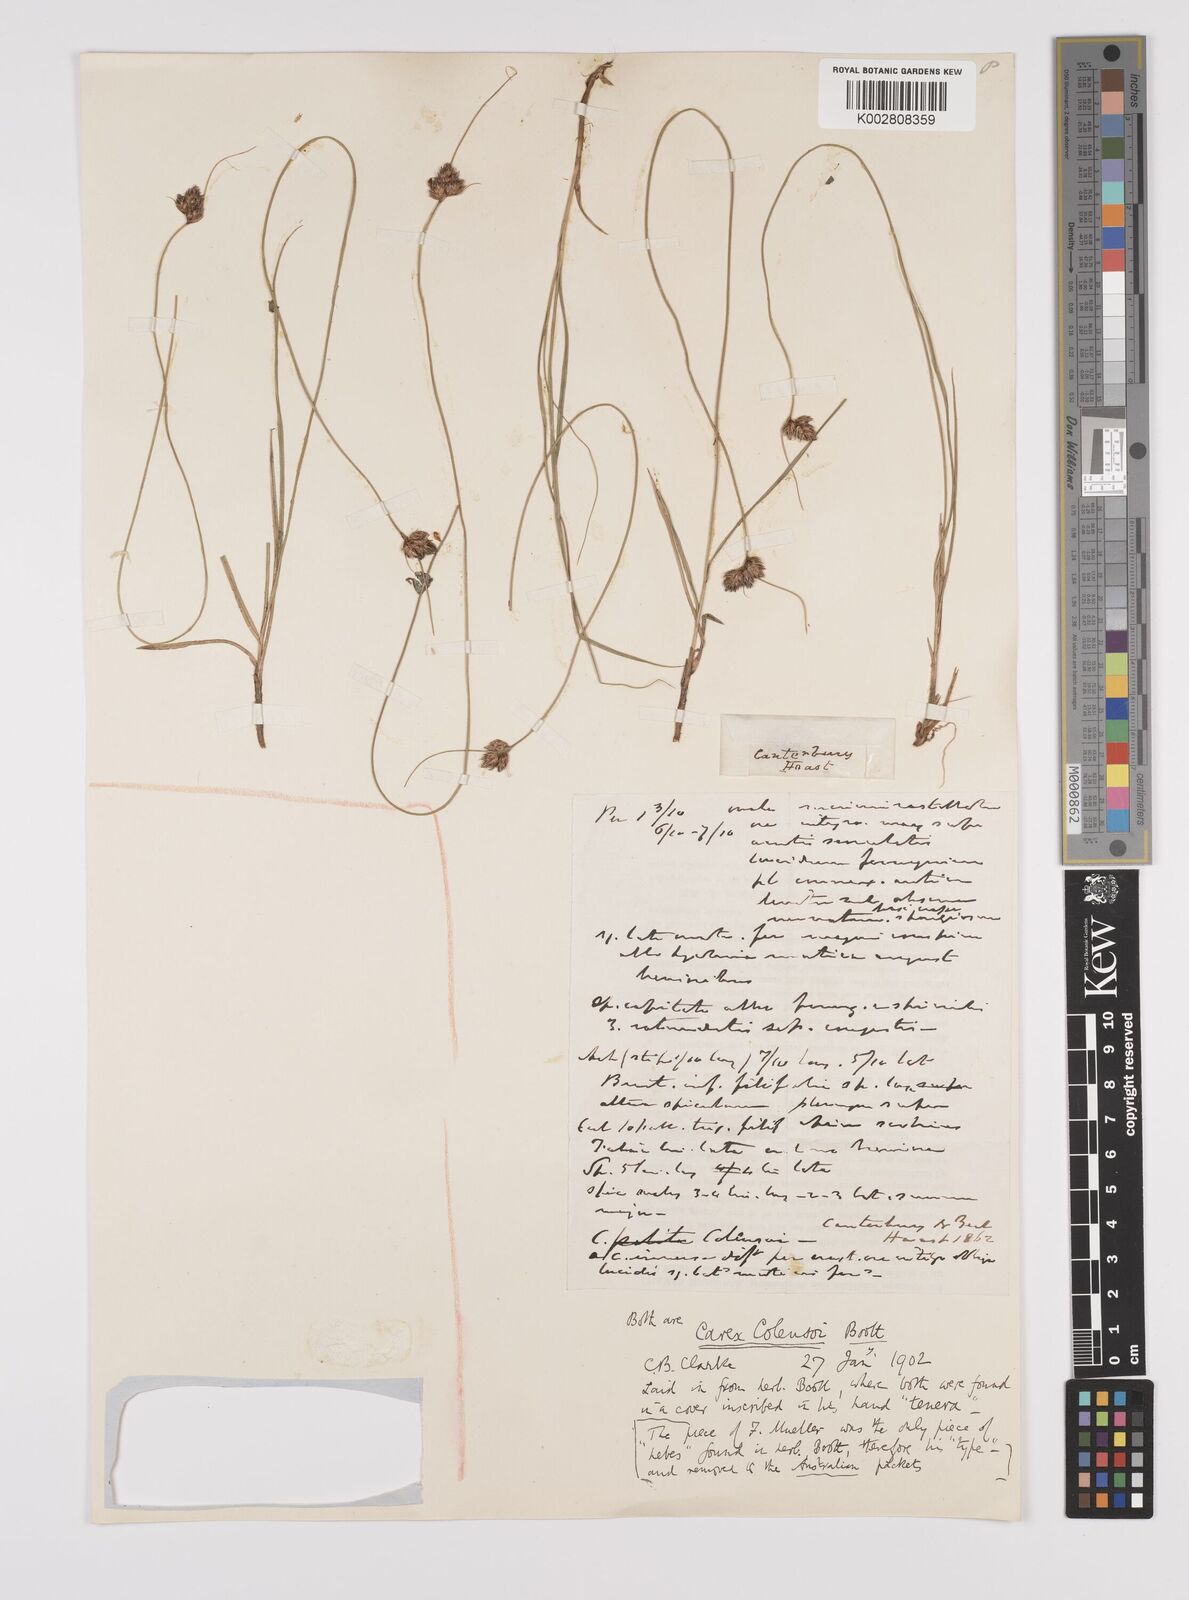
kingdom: Plantae
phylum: Tracheophyta
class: Liliopsida
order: Poales
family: Cyperaceae
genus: Carex
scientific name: Carex colensoi
